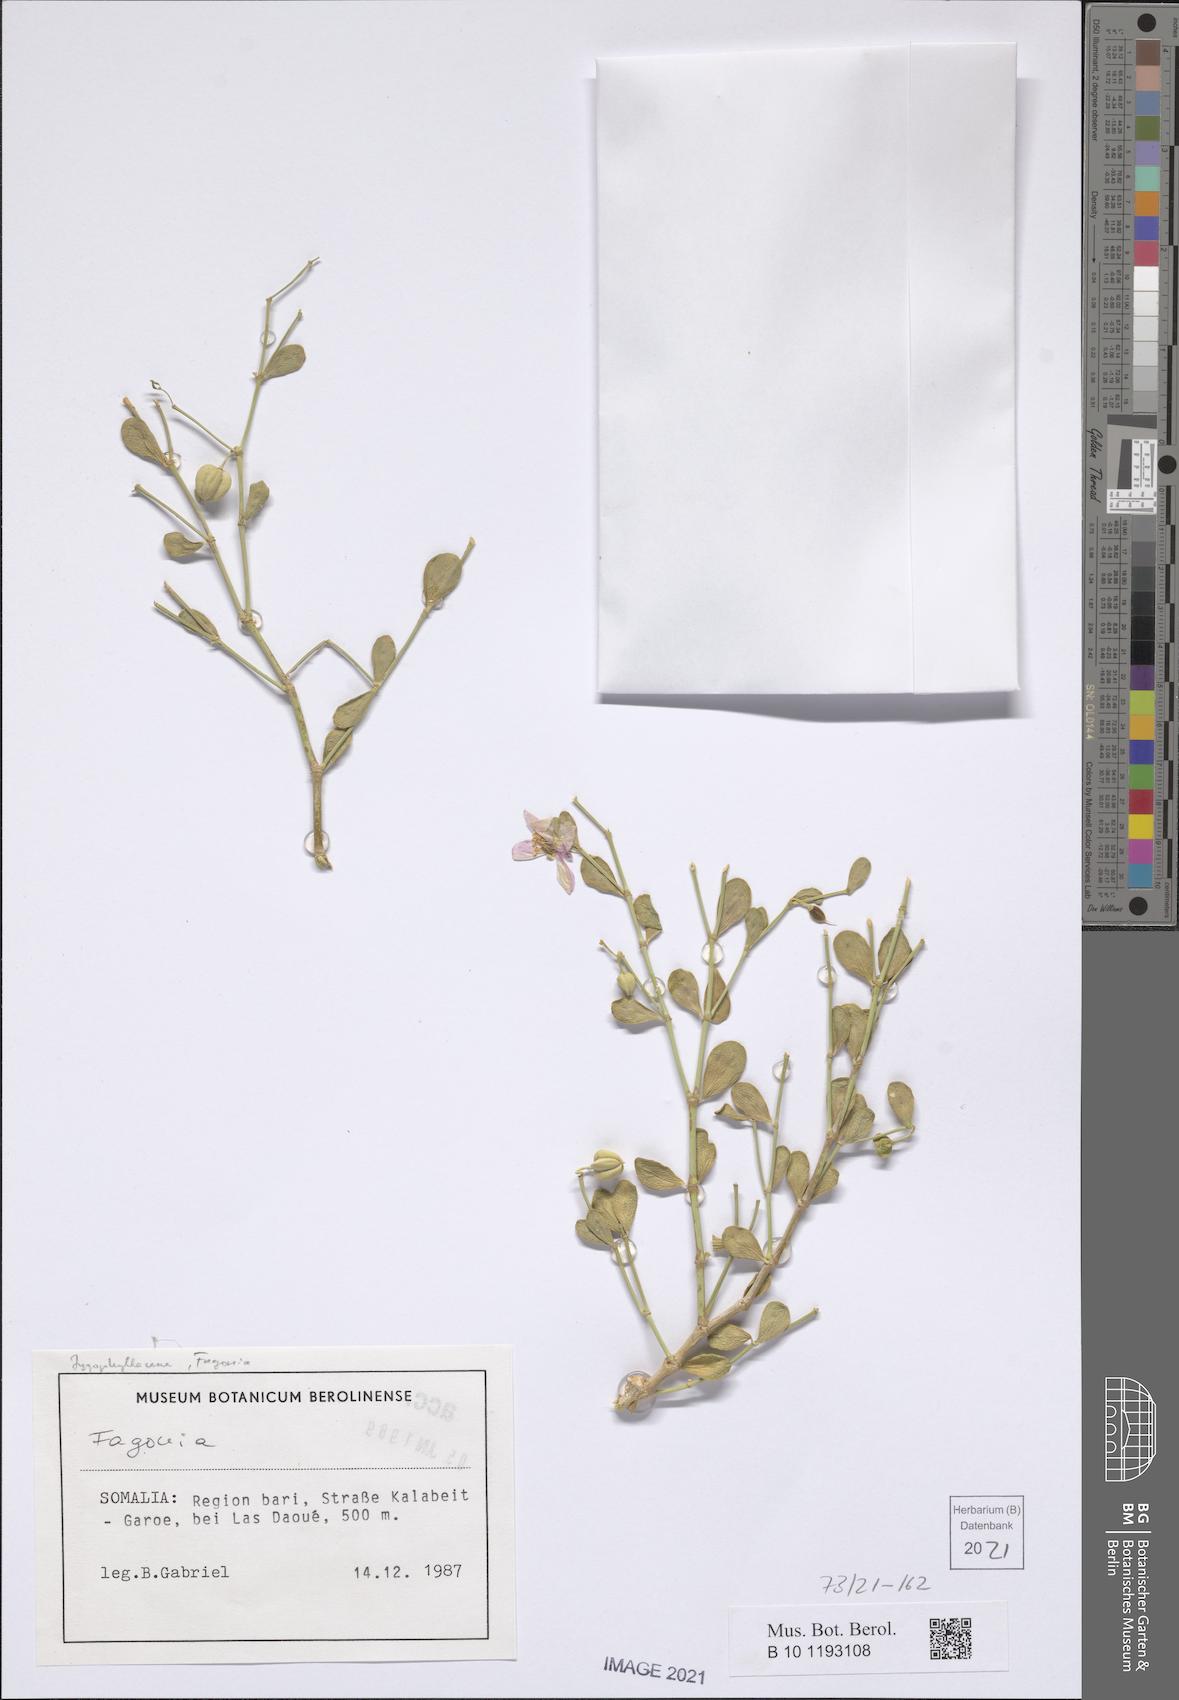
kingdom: Plantae
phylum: Tracheophyta
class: Magnoliopsida
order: Zygophyllales
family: Zygophyllaceae
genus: Fagonia
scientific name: Fagonia
